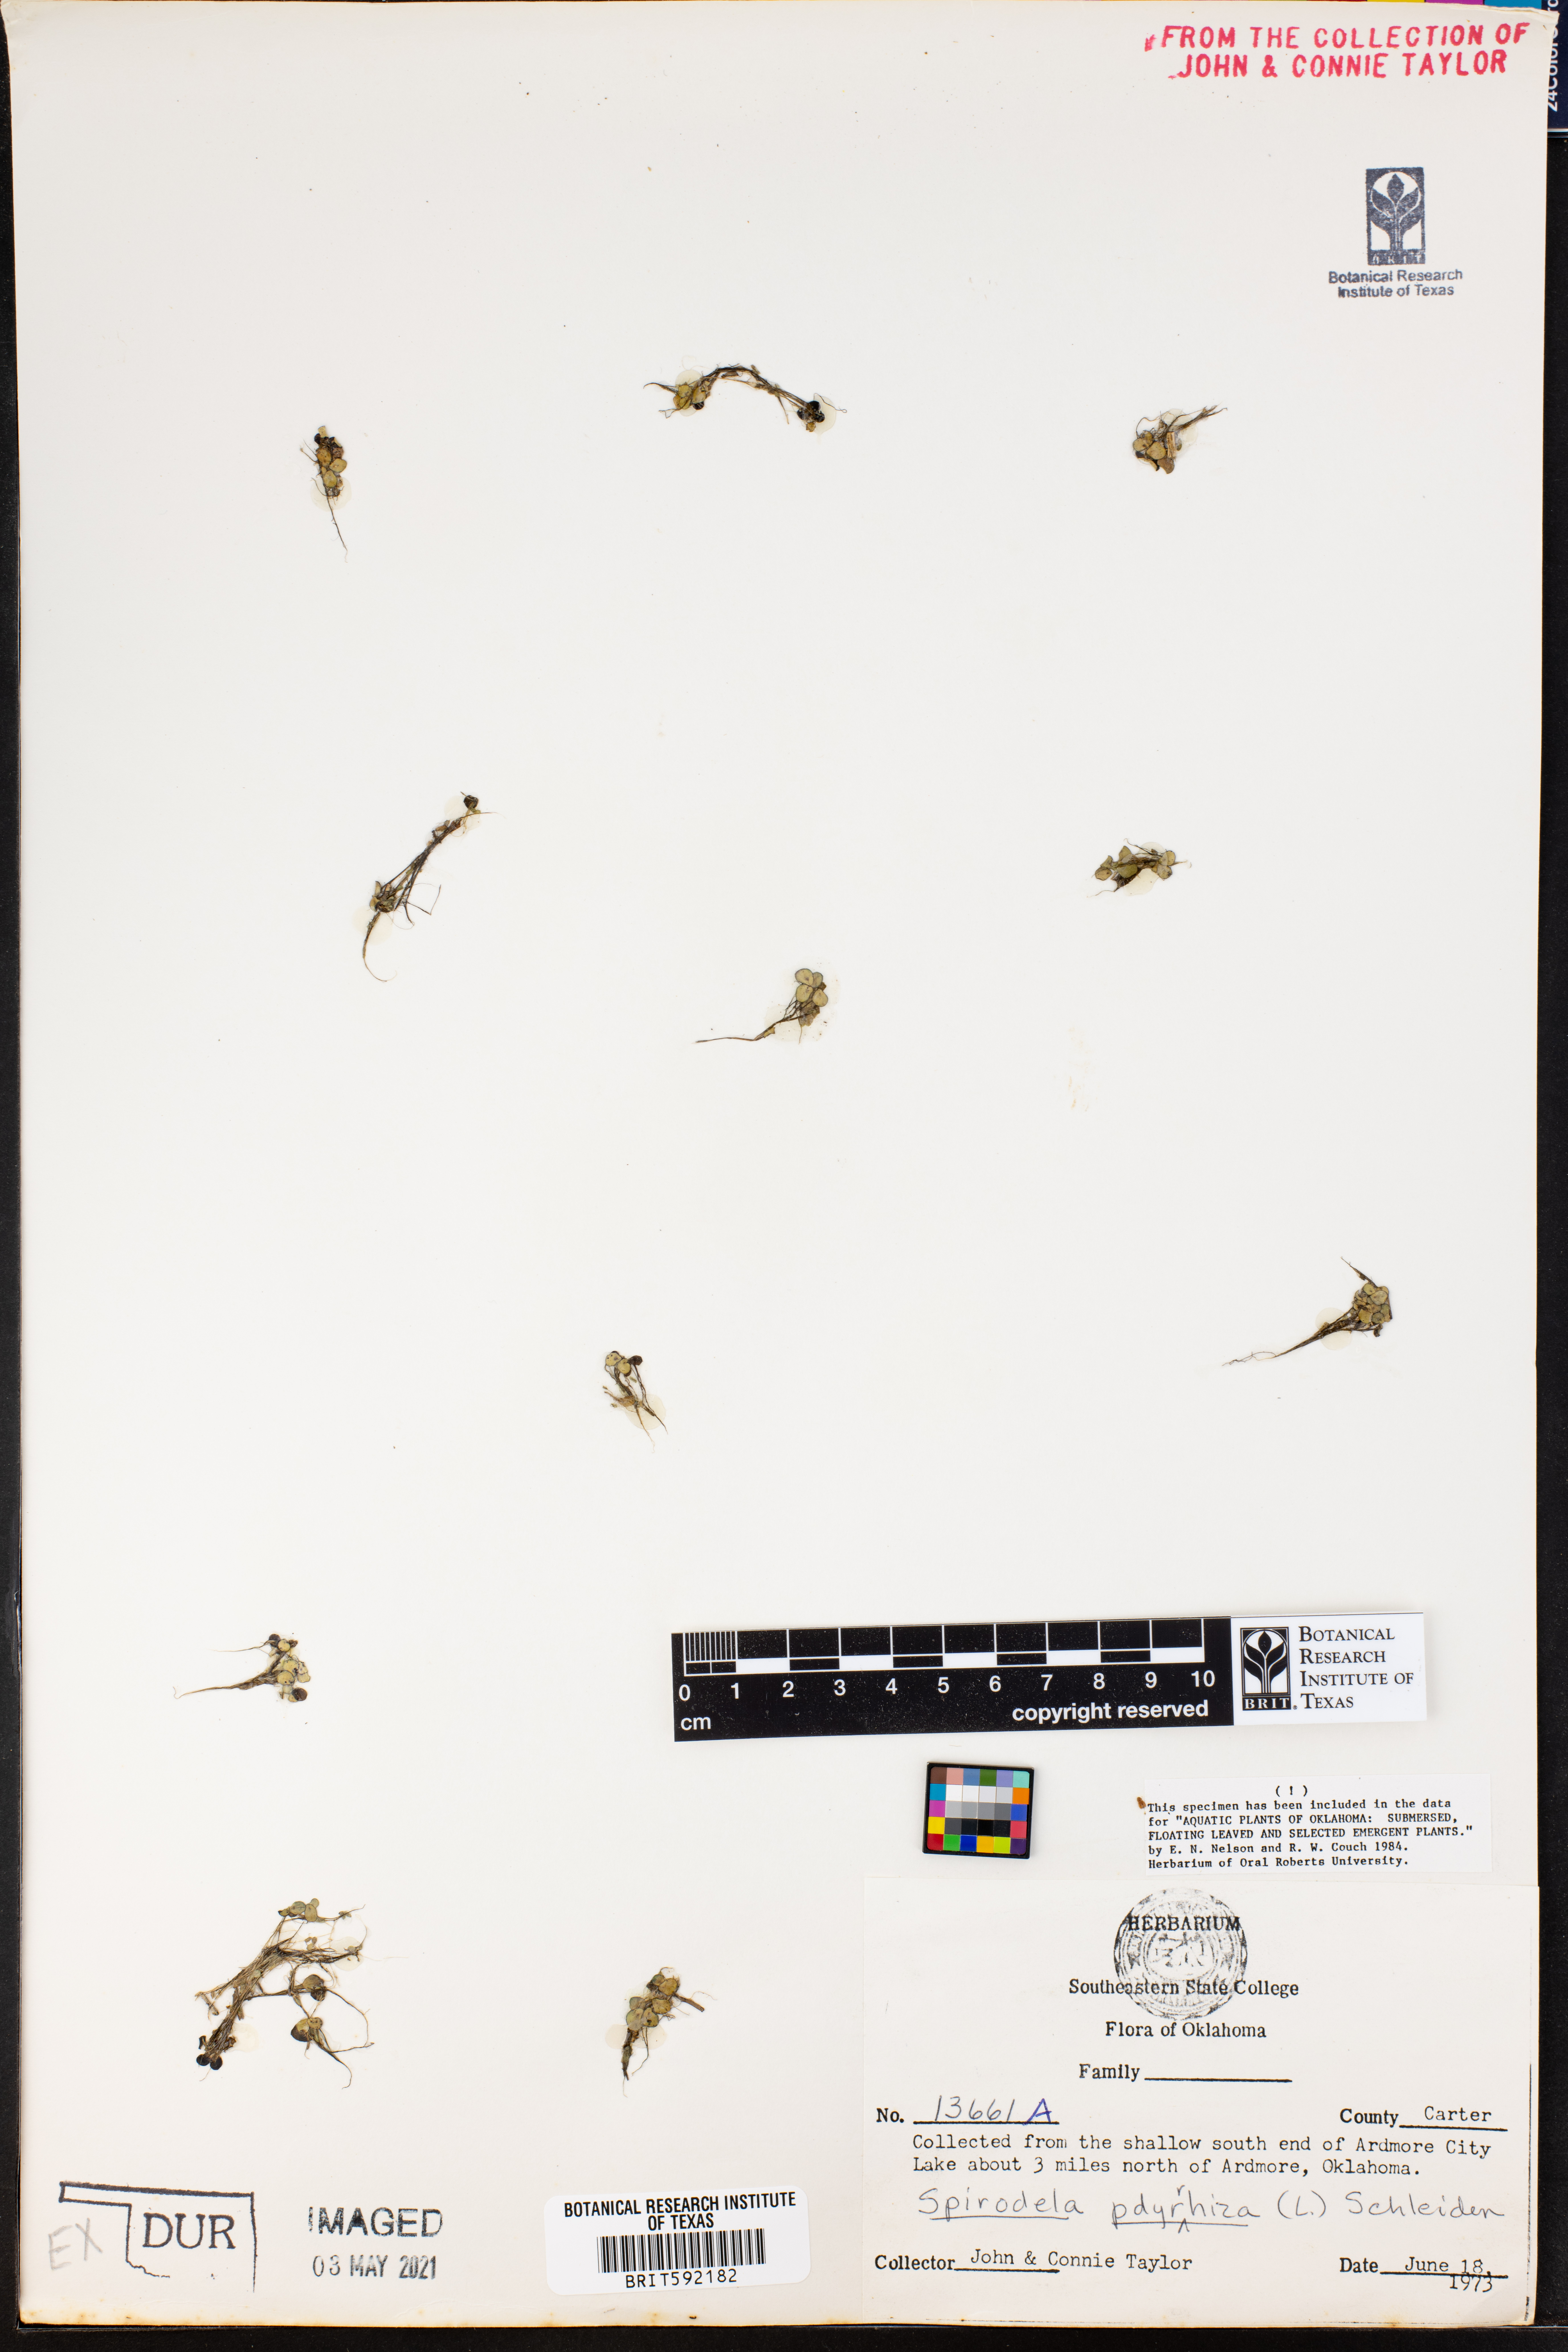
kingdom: Plantae
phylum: Tracheophyta
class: Liliopsida
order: Alismatales
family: Araceae
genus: Spirodela
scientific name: Spirodela polyrhiza
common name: Great duckweed
